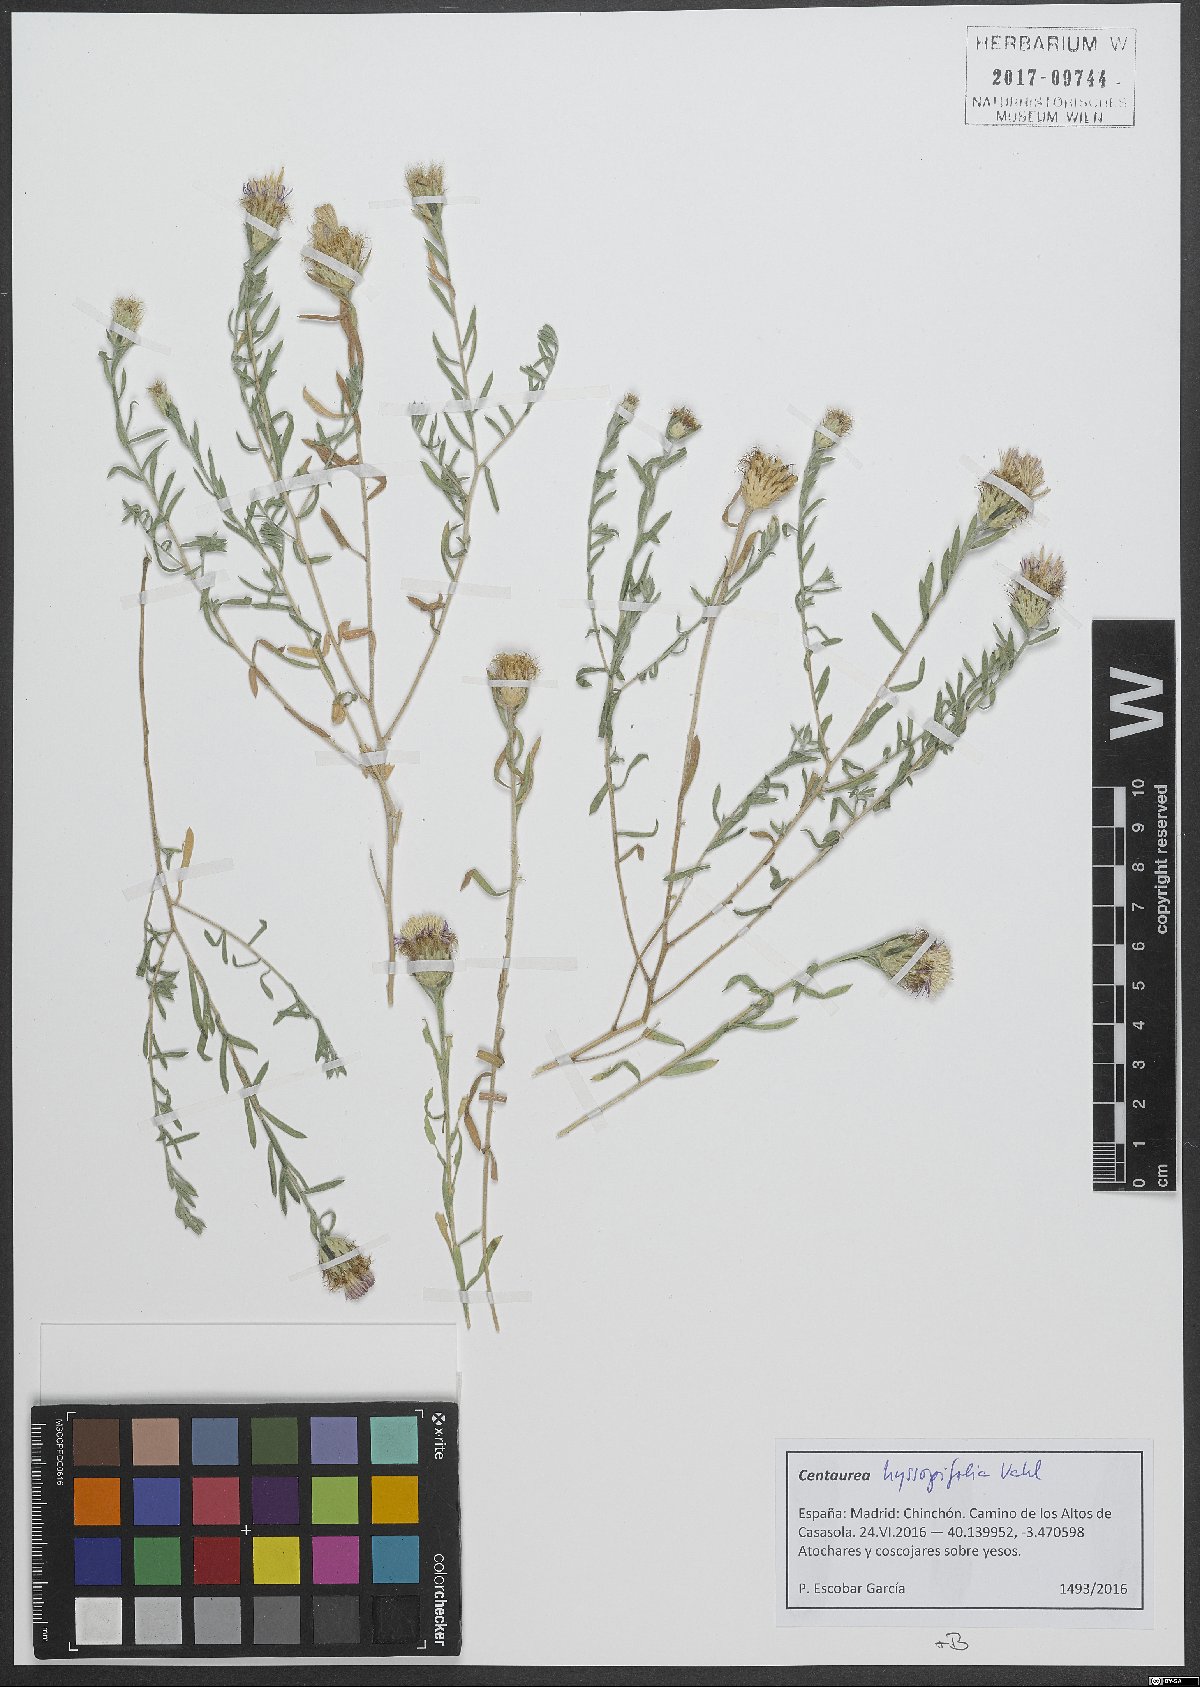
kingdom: Plantae
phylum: Tracheophyta
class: Magnoliopsida
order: Asterales
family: Asteraceae
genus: Centaurea
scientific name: Centaurea hyssopifolia
